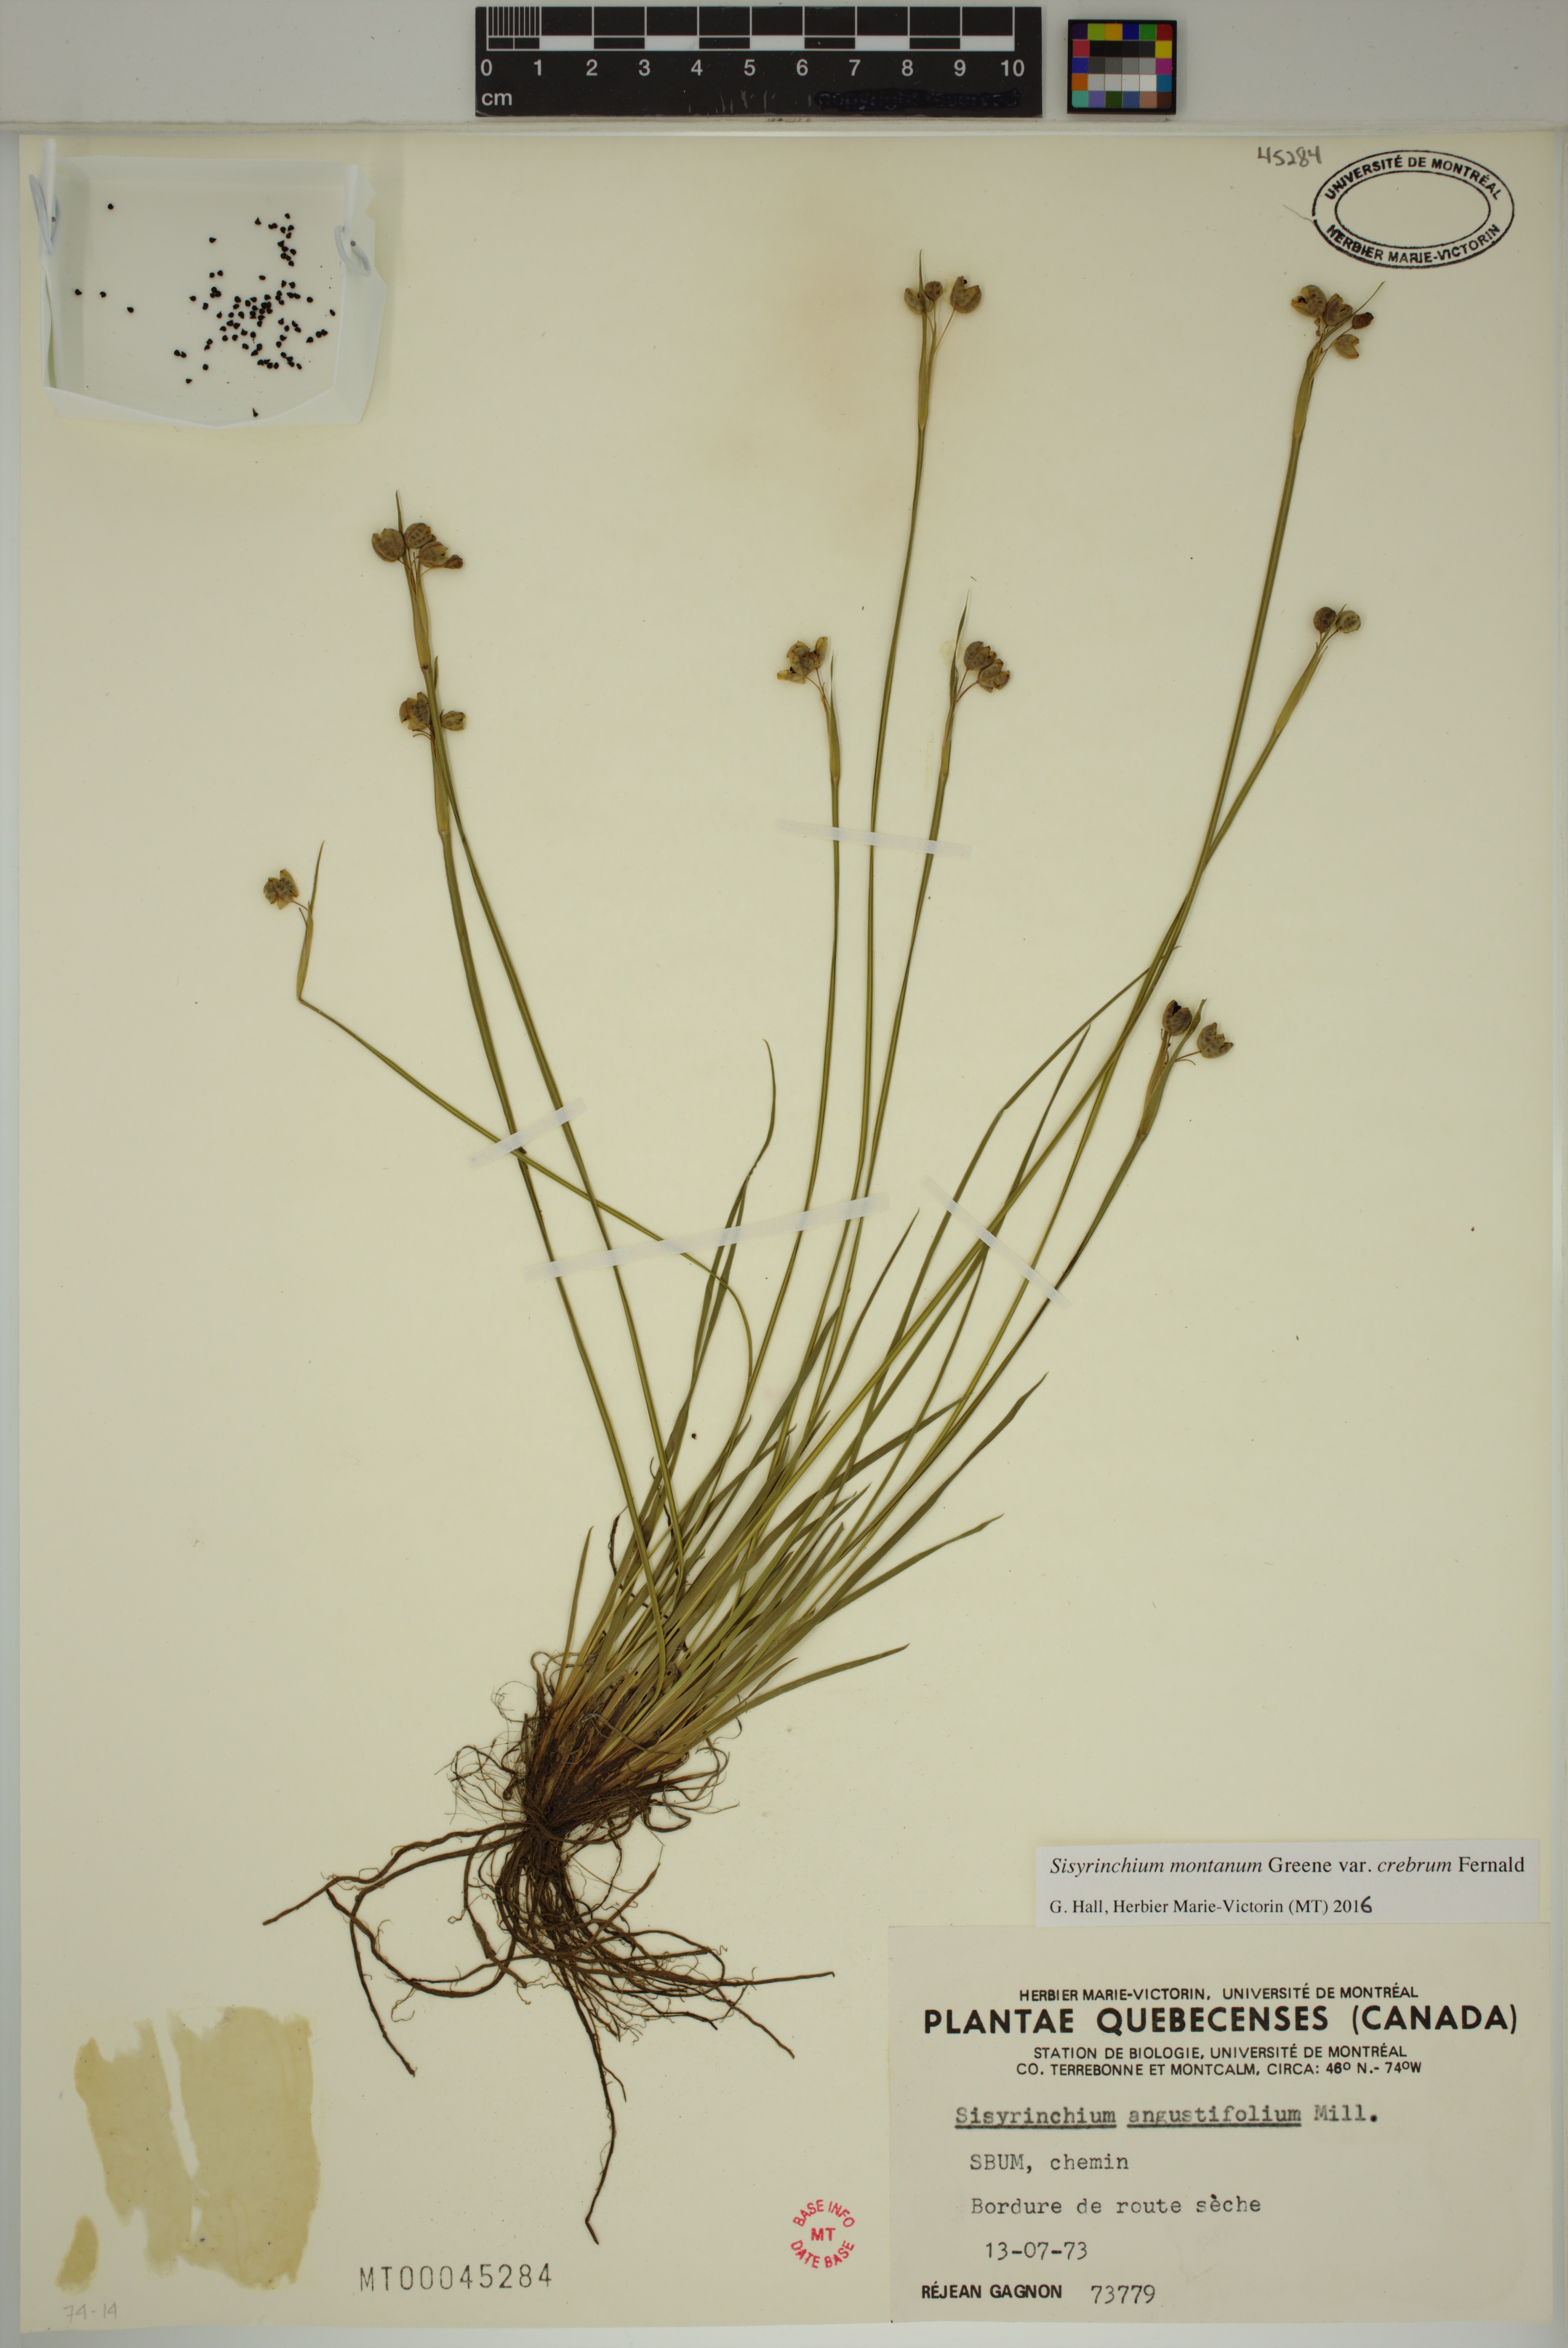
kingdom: Plantae
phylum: Tracheophyta
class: Liliopsida
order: Asparagales
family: Iridaceae
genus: Sisyrinchium
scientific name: Sisyrinchium montanum
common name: American blue-eyed-grass
